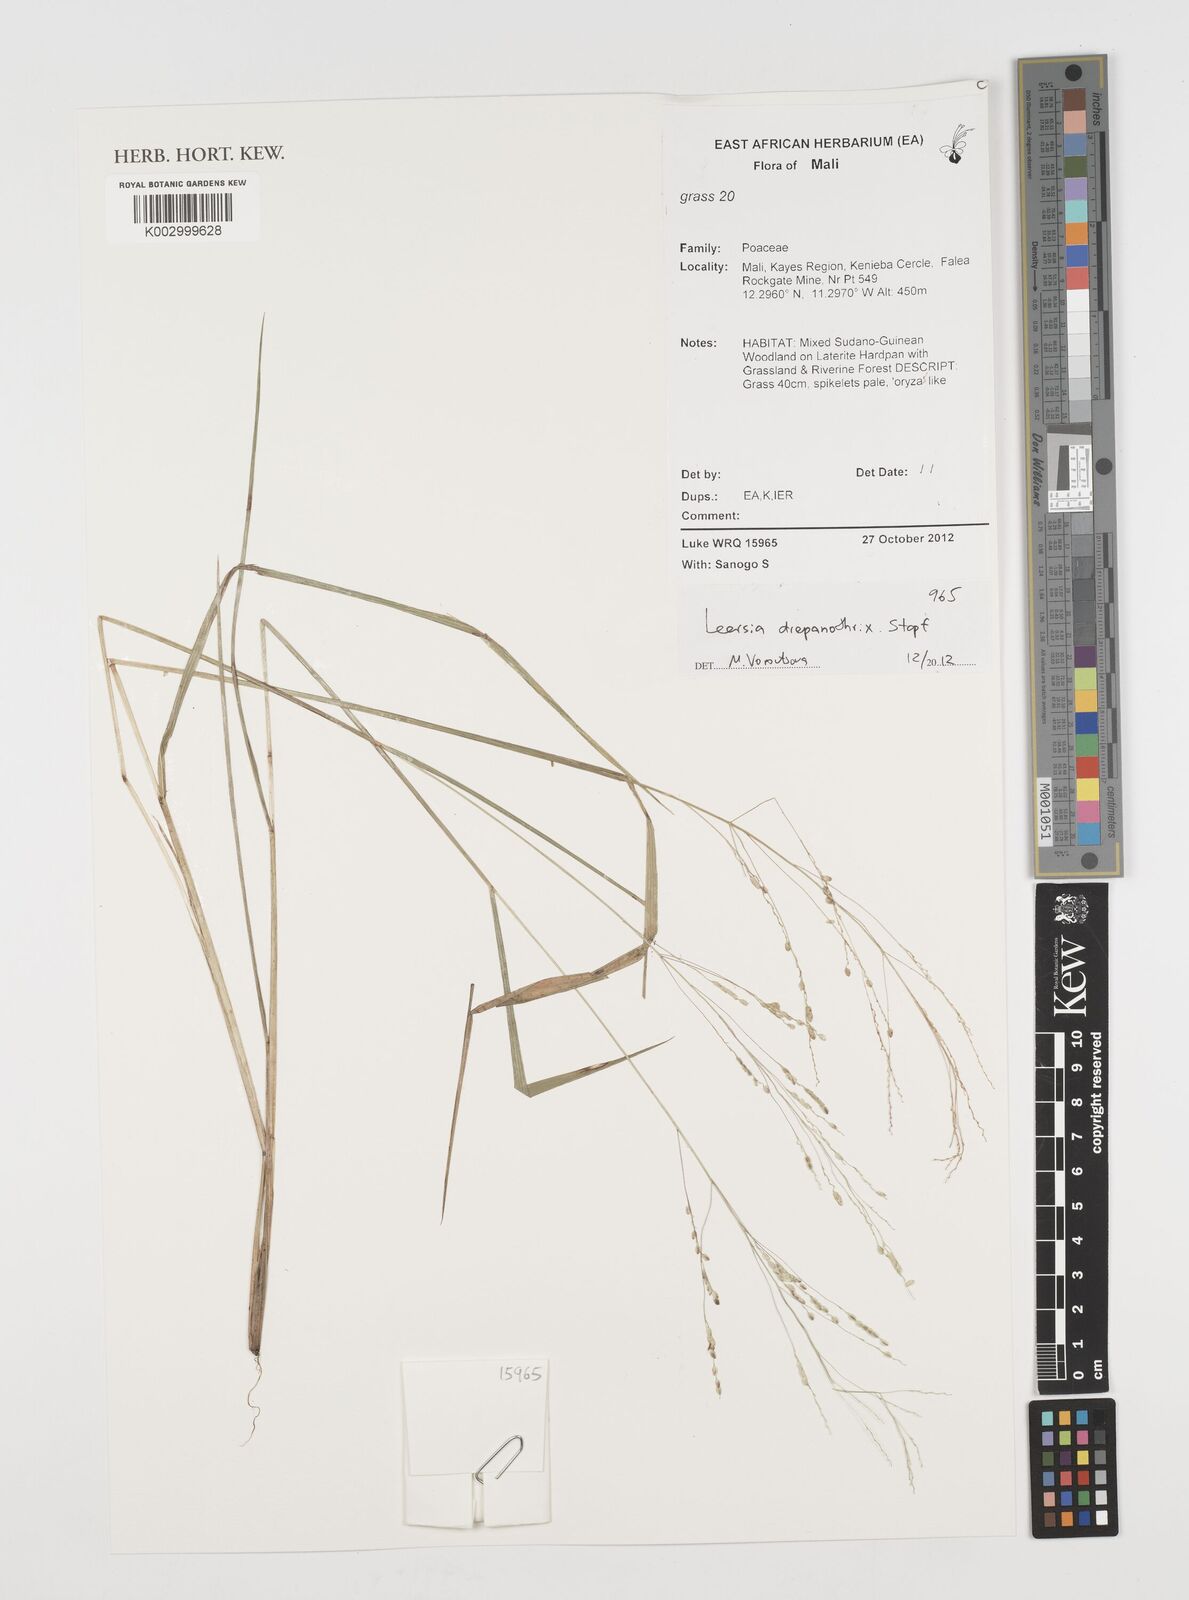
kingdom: Plantae
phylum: Tracheophyta
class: Liliopsida
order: Poales
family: Poaceae
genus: Leersia
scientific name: Leersia drepanothrix
